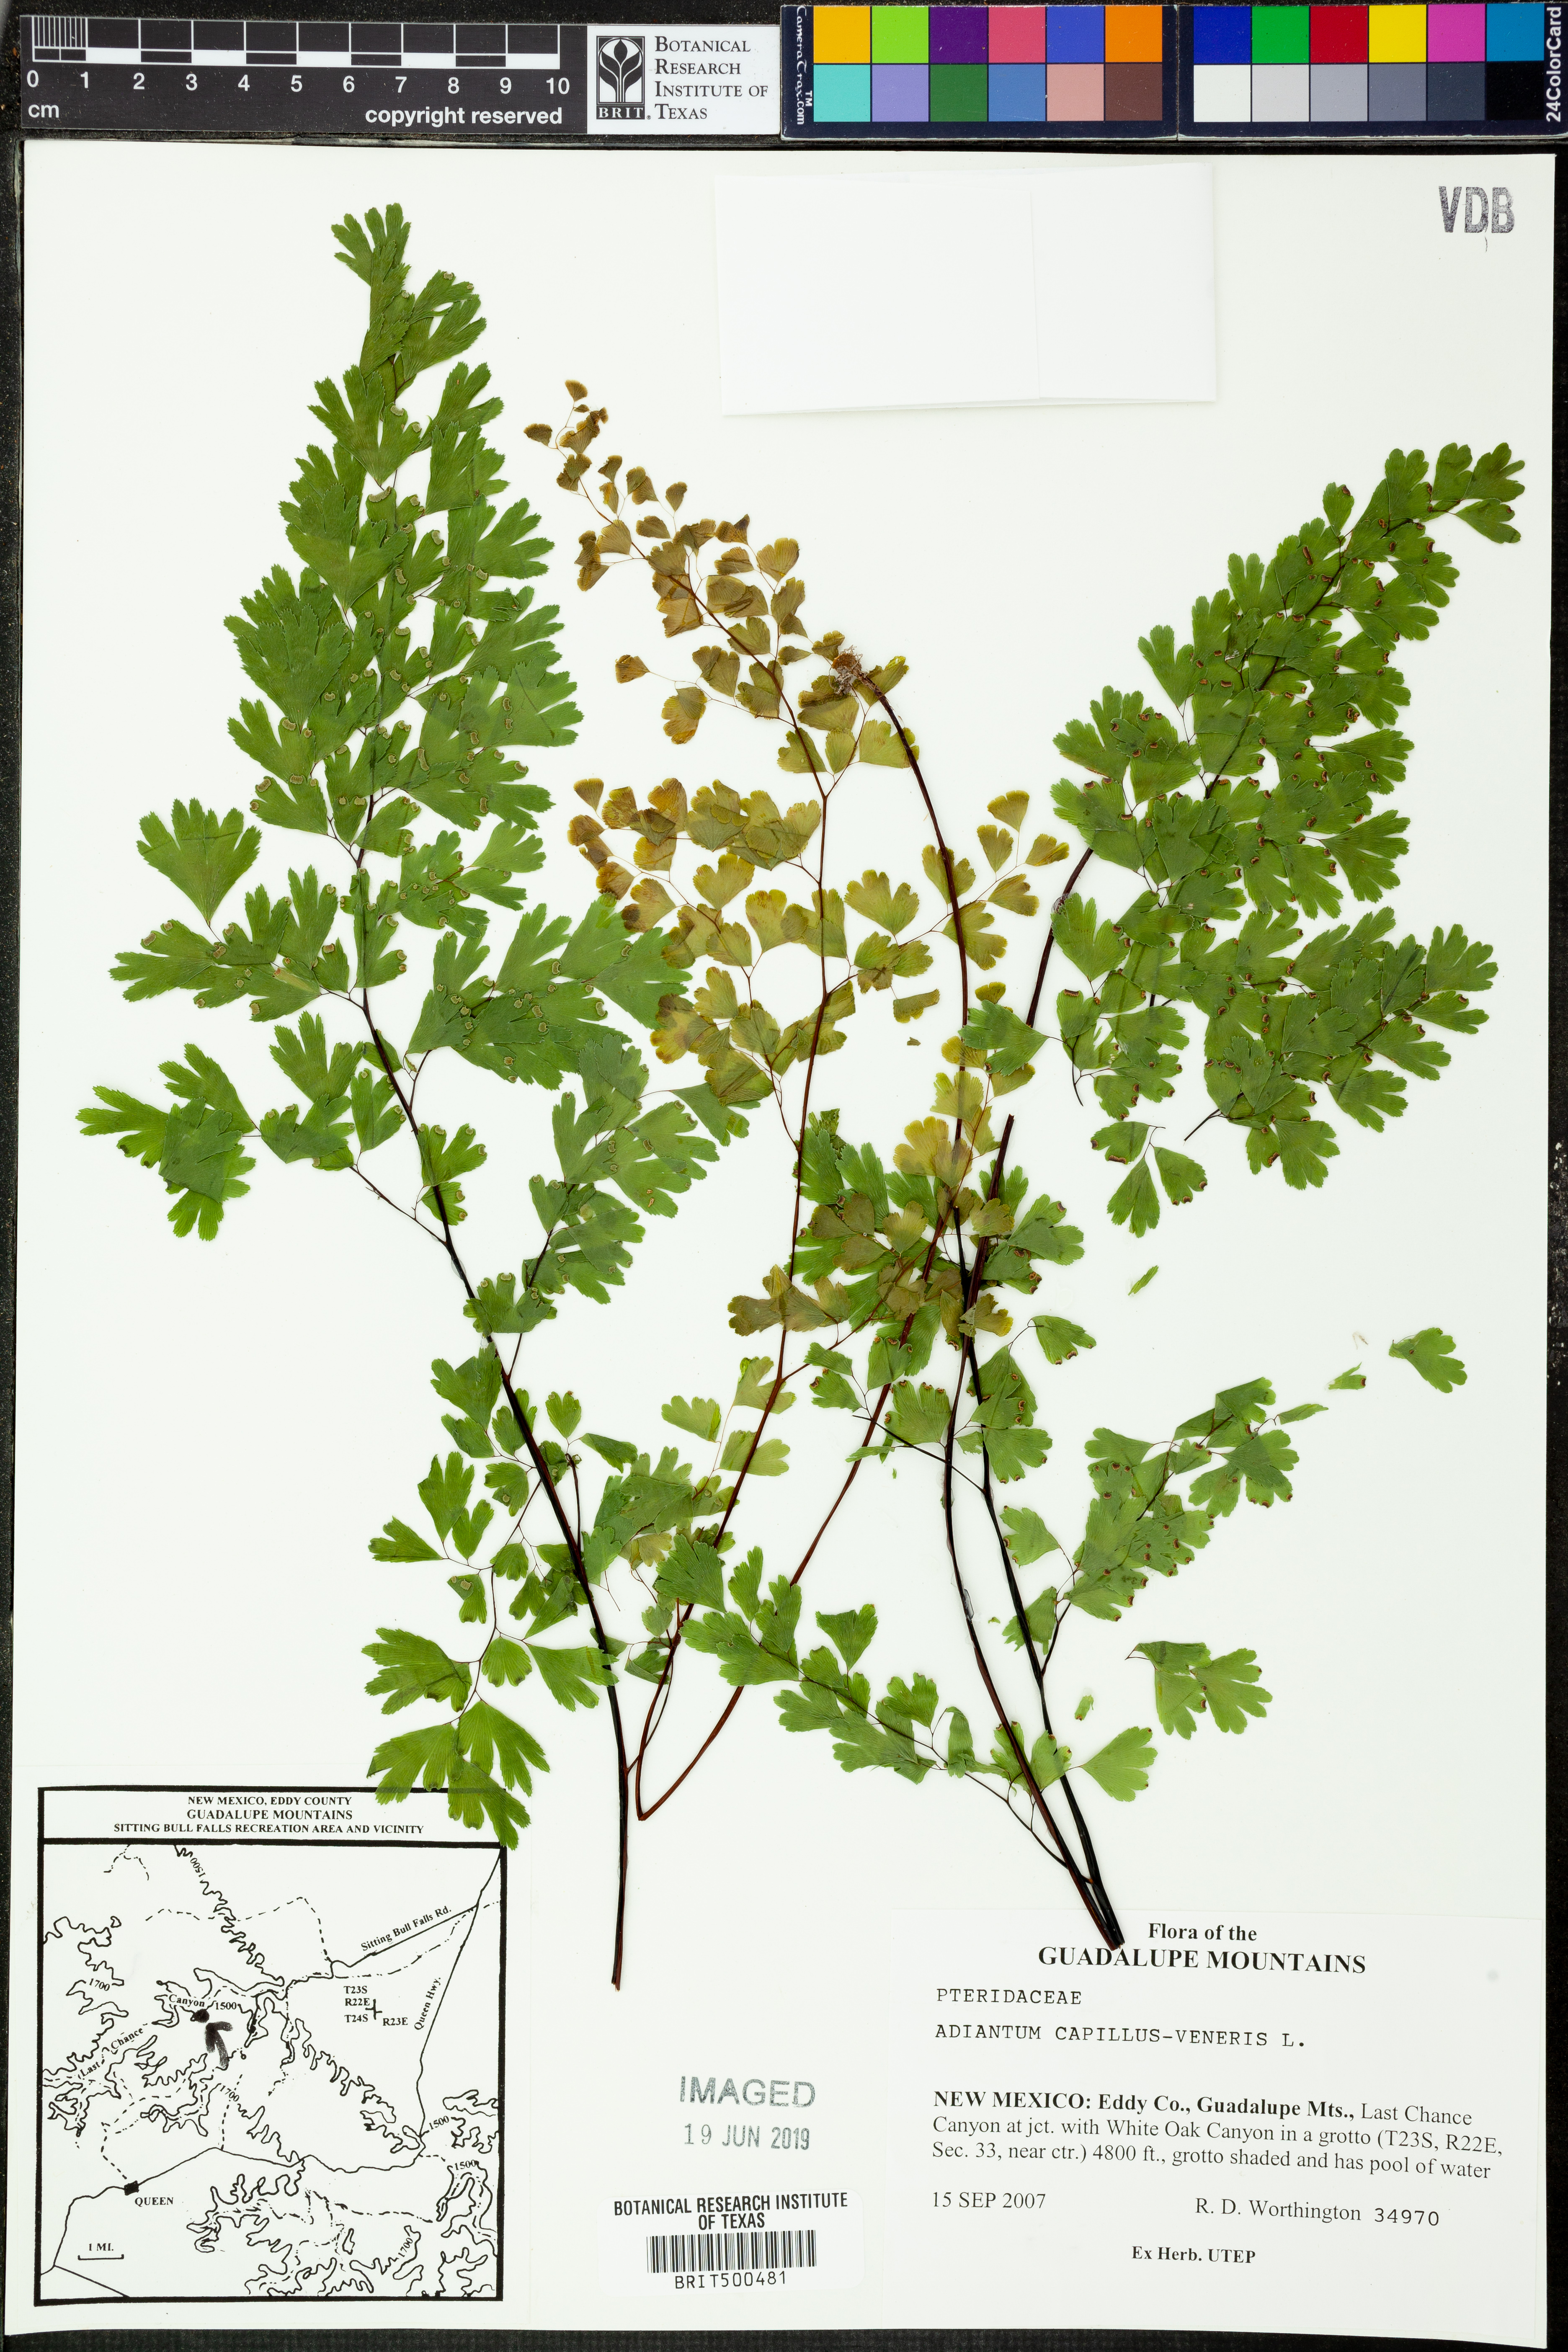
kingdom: Plantae
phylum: Tracheophyta
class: Polypodiopsida
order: Polypodiales
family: Pteridaceae
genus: Adiantum
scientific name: Adiantum capillus-veneris
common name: Maidenhair fern
